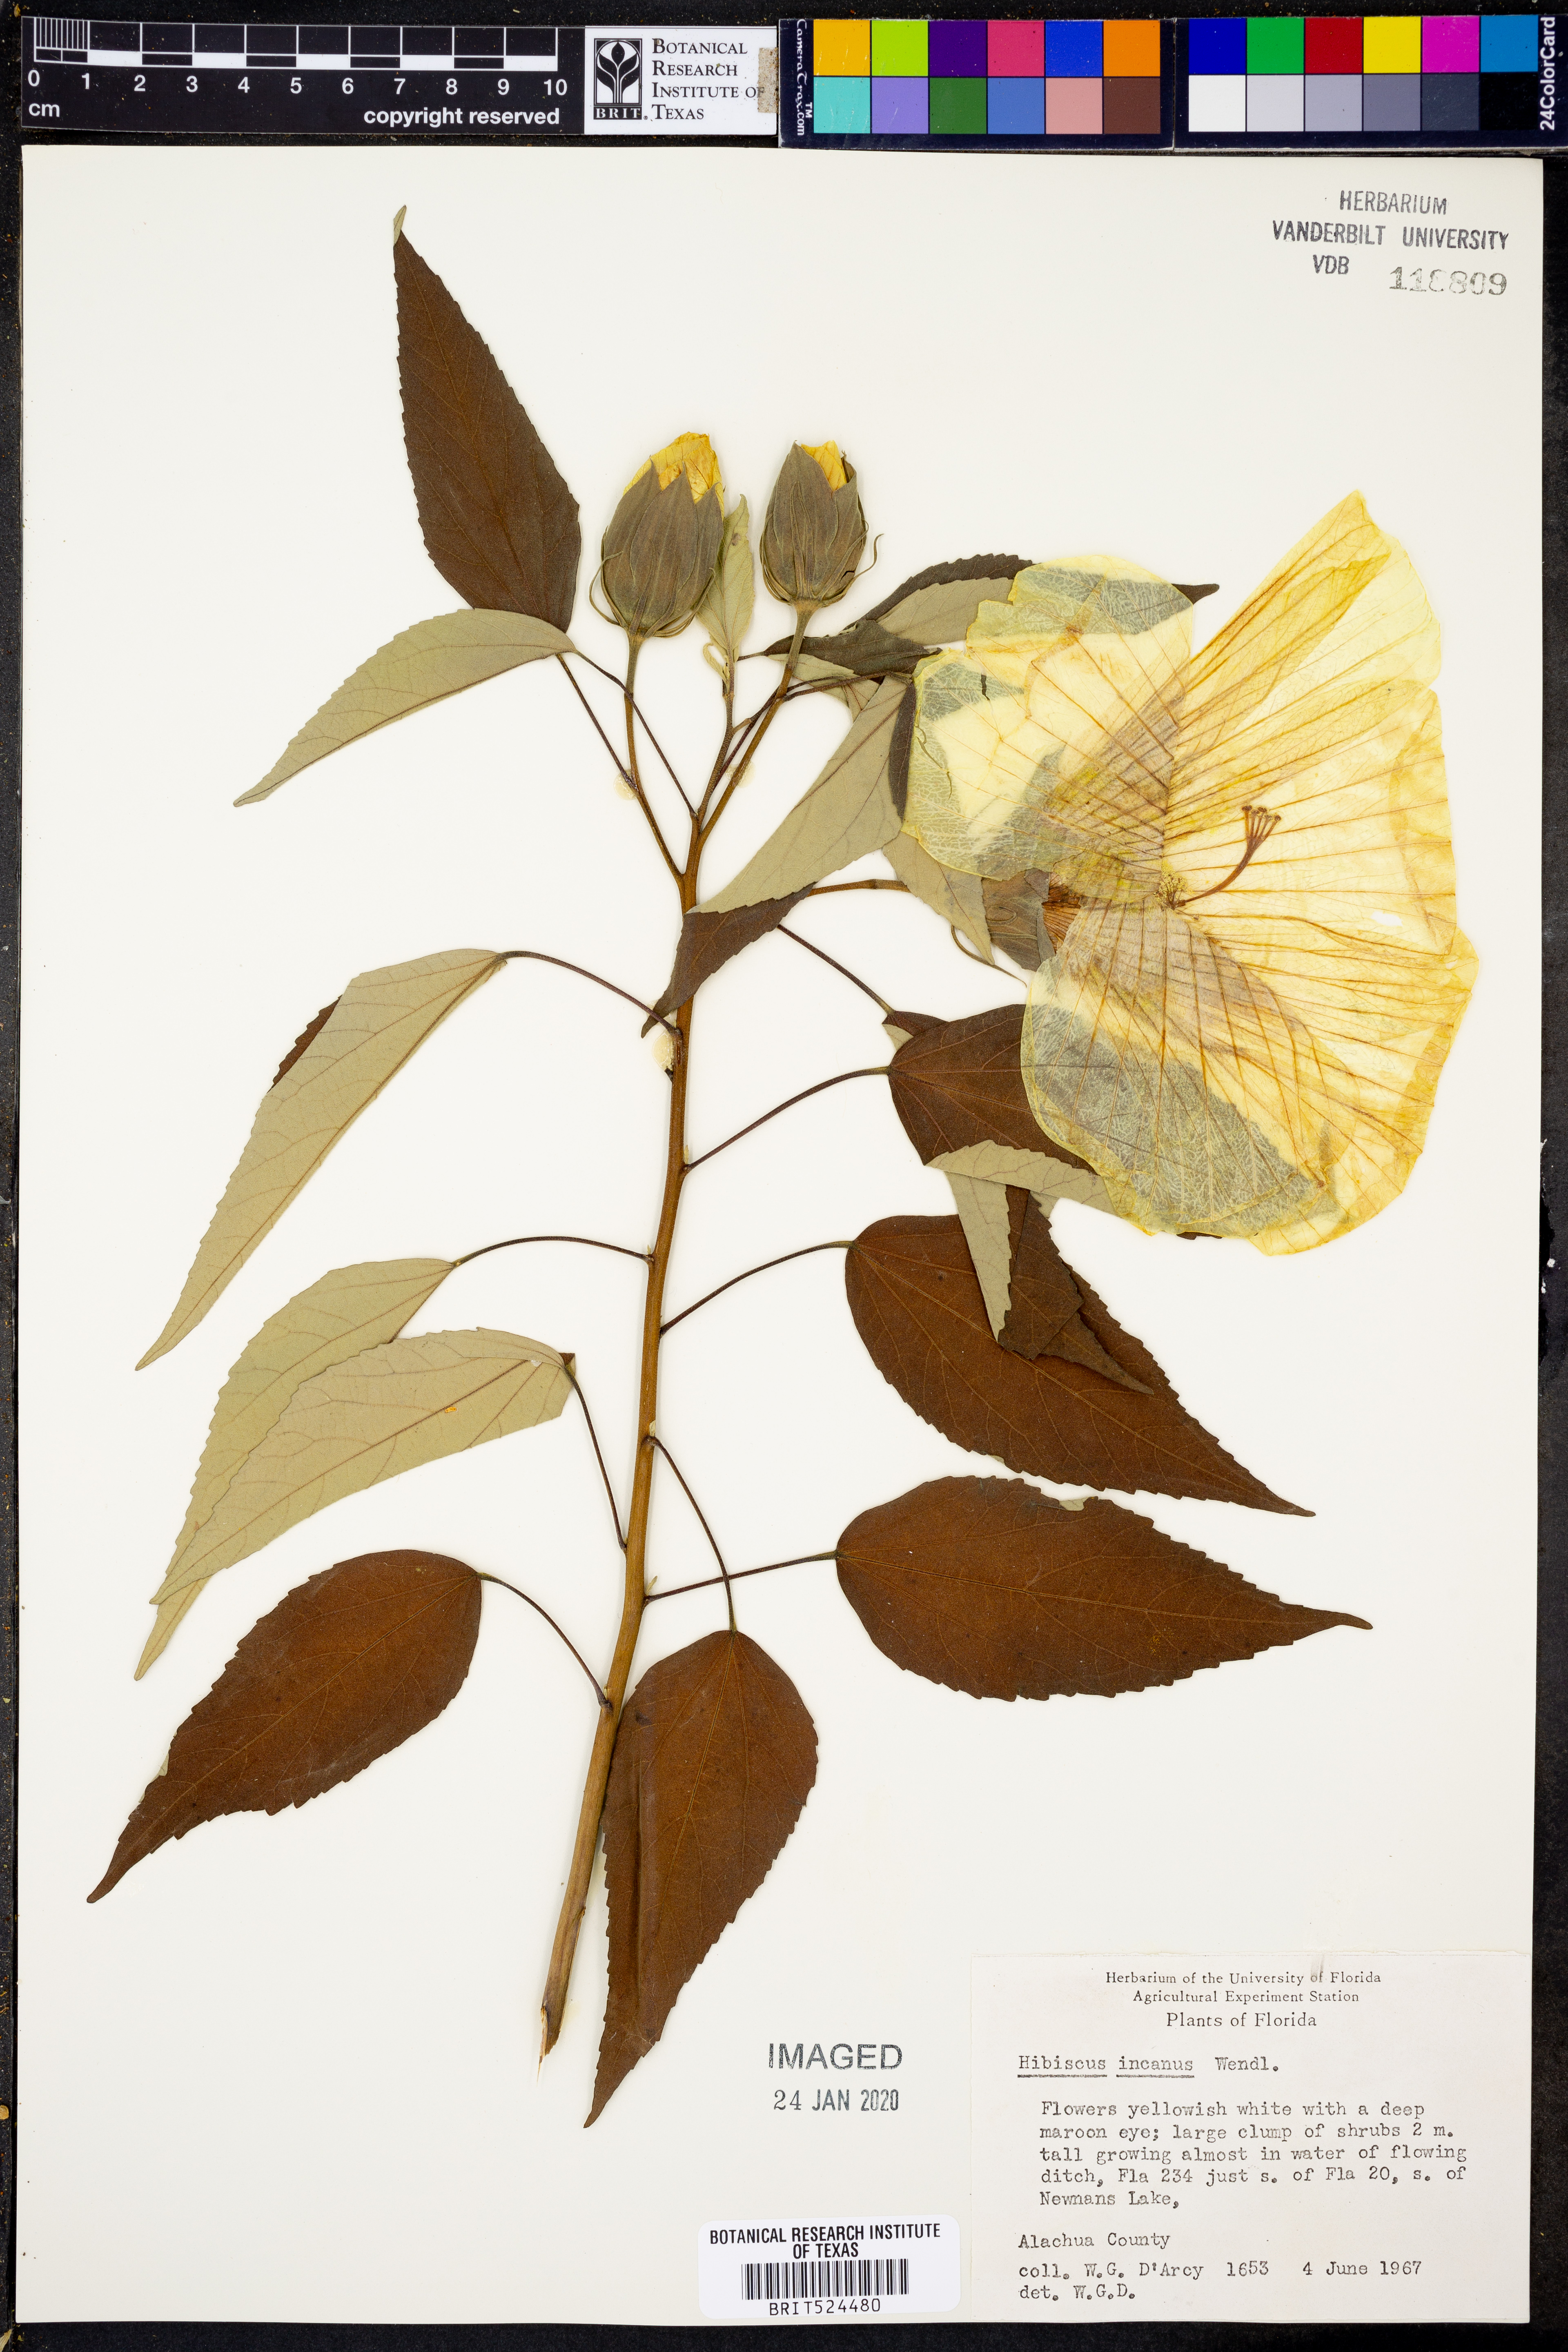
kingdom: Plantae
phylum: Tracheophyta
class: Magnoliopsida
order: Malvales
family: Malvaceae
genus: Hibiscus
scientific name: Hibiscus moscheutos
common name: Common rose-mallow
